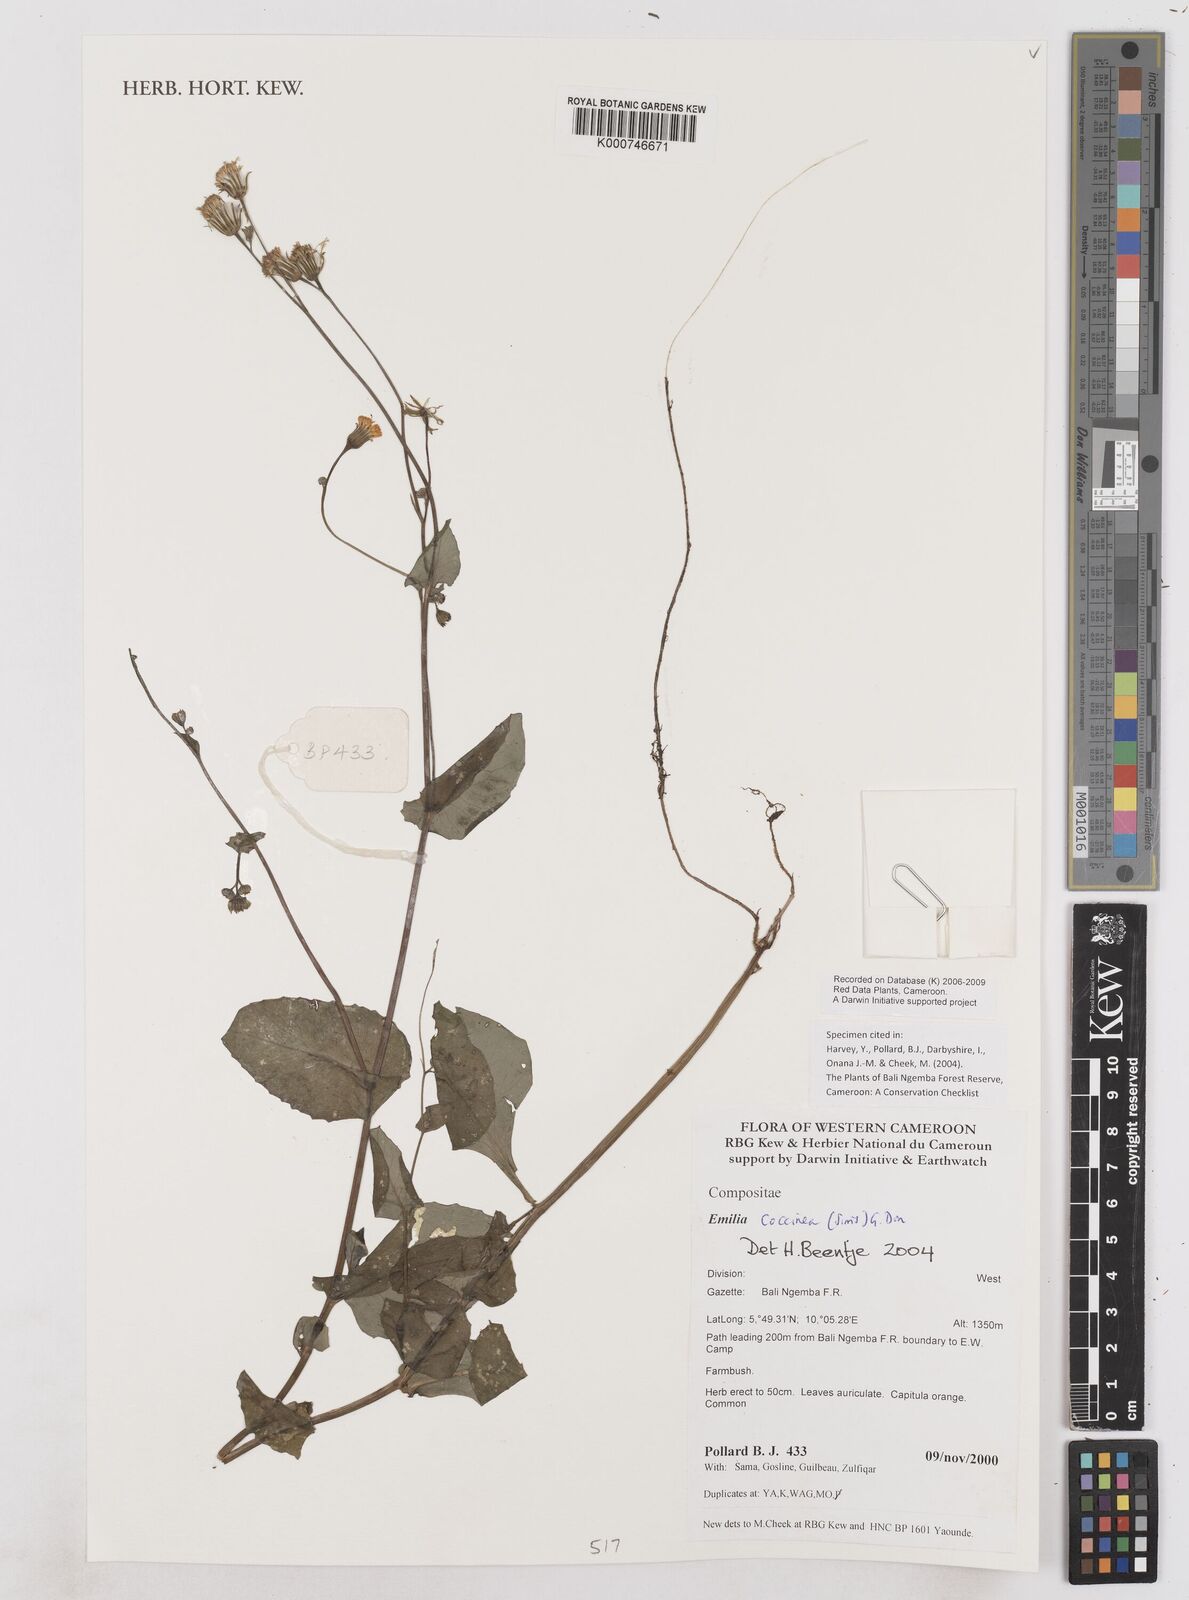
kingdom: Plantae
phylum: Tracheophyta
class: Magnoliopsida
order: Asterales
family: Asteraceae
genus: Emilia
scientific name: Emilia coccinea
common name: Scarlet tasselflower
